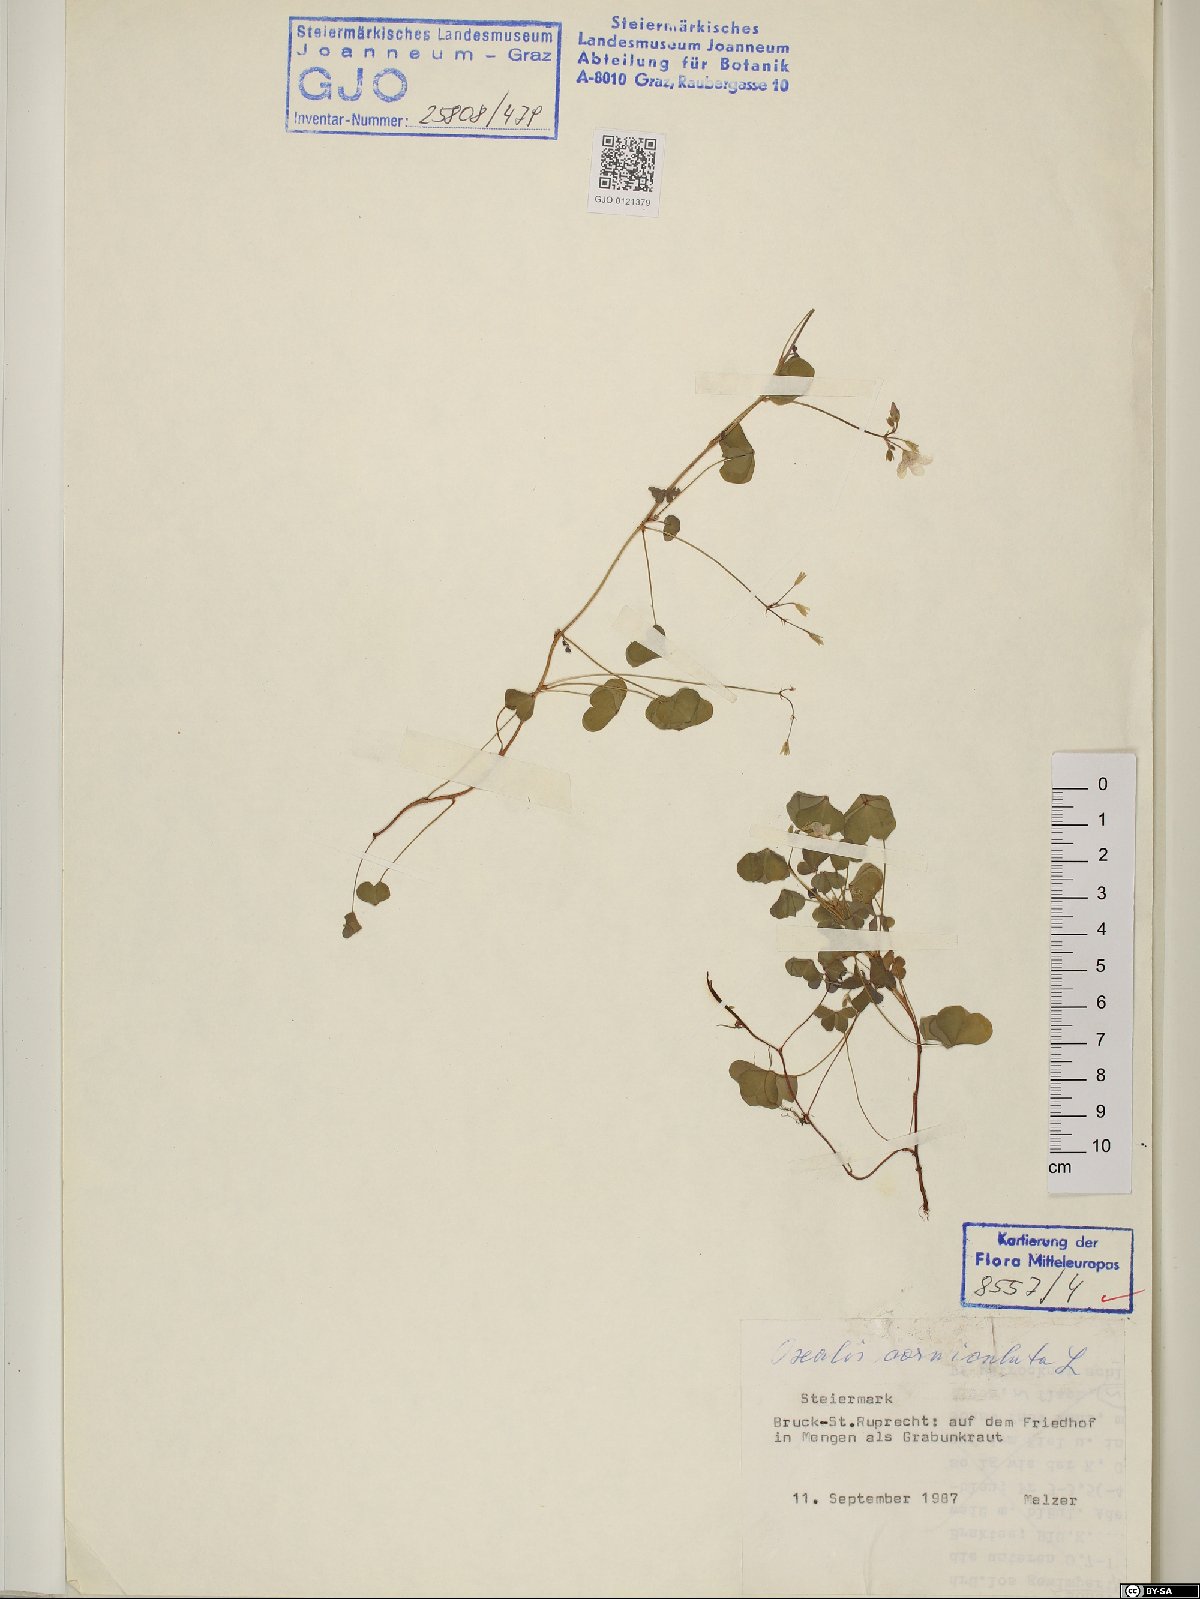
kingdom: Plantae
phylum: Tracheophyta
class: Magnoliopsida
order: Oxalidales
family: Oxalidaceae
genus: Oxalis
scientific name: Oxalis corniculata
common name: Procumbent yellow-sorrel
